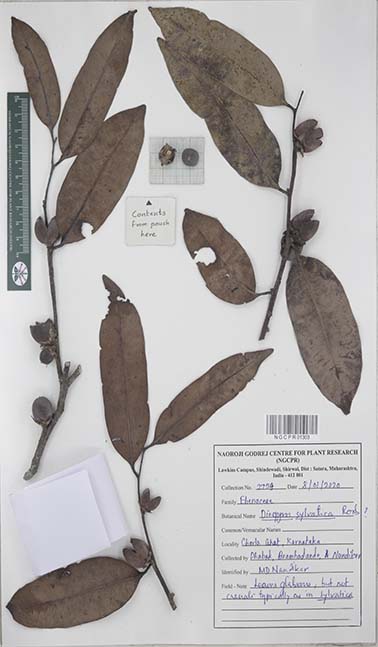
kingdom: Plantae
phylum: Tracheophyta
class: Magnoliopsida
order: Ericales
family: Ebenaceae
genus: Diospyros
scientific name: Diospyros sylvatica
